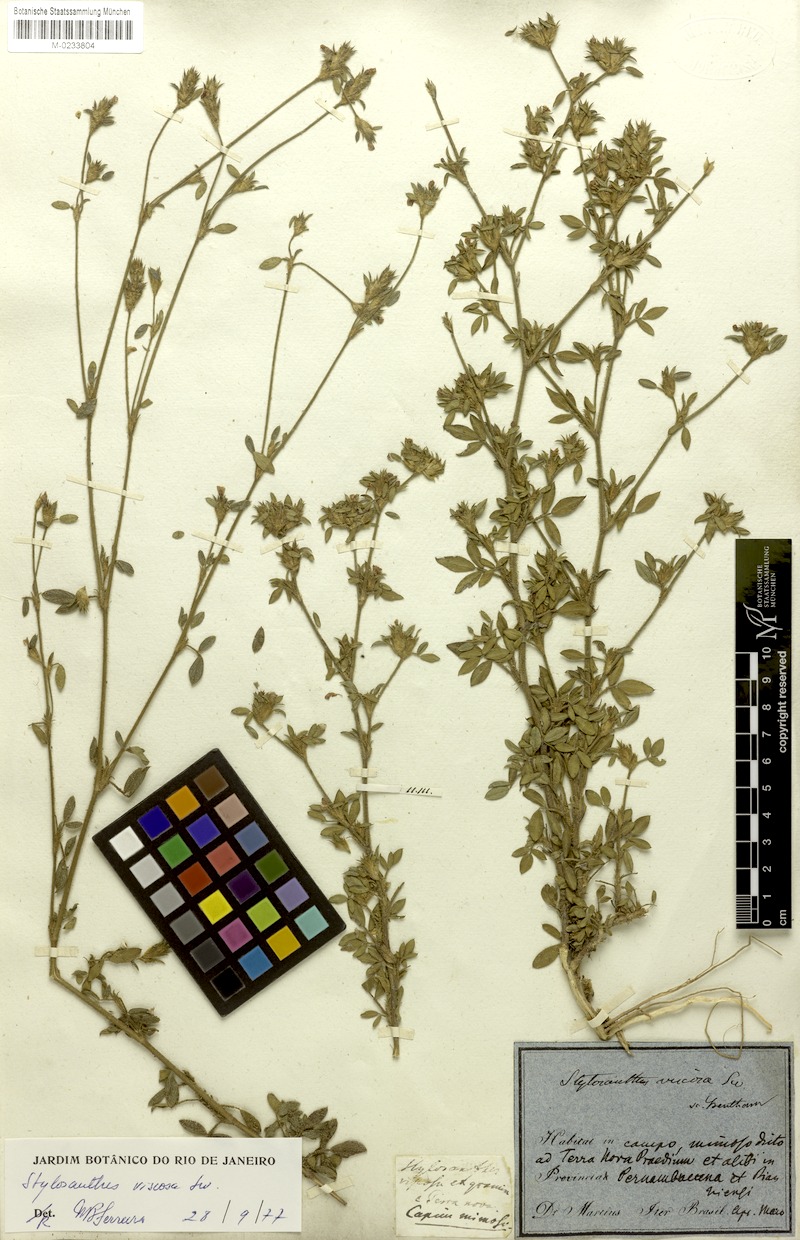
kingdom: Plantae
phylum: Tracheophyta
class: Magnoliopsida
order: Fabales
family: Fabaceae
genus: Stylosanthes
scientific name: Stylosanthes viscosa
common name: Viscid pencil-flower
